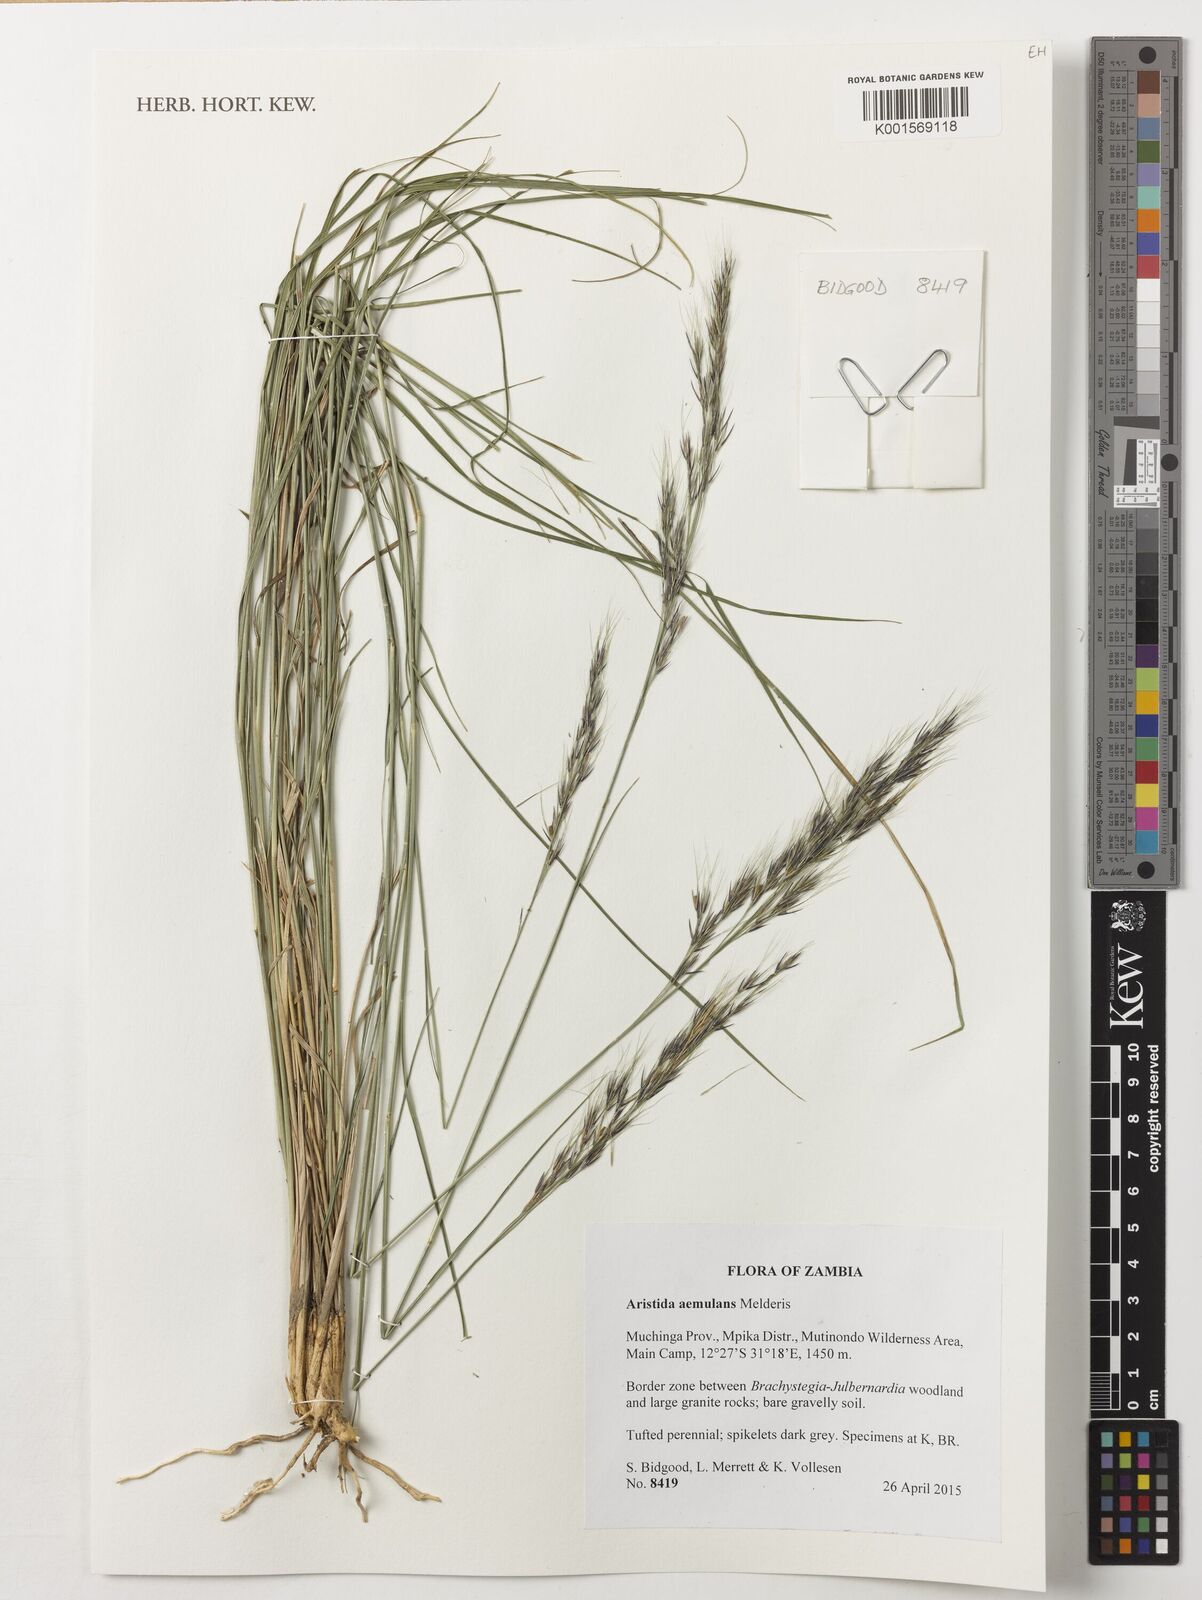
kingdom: Plantae
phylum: Tracheophyta
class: Liliopsida
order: Poales
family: Poaceae
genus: Aristida
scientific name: Aristida aemulans
